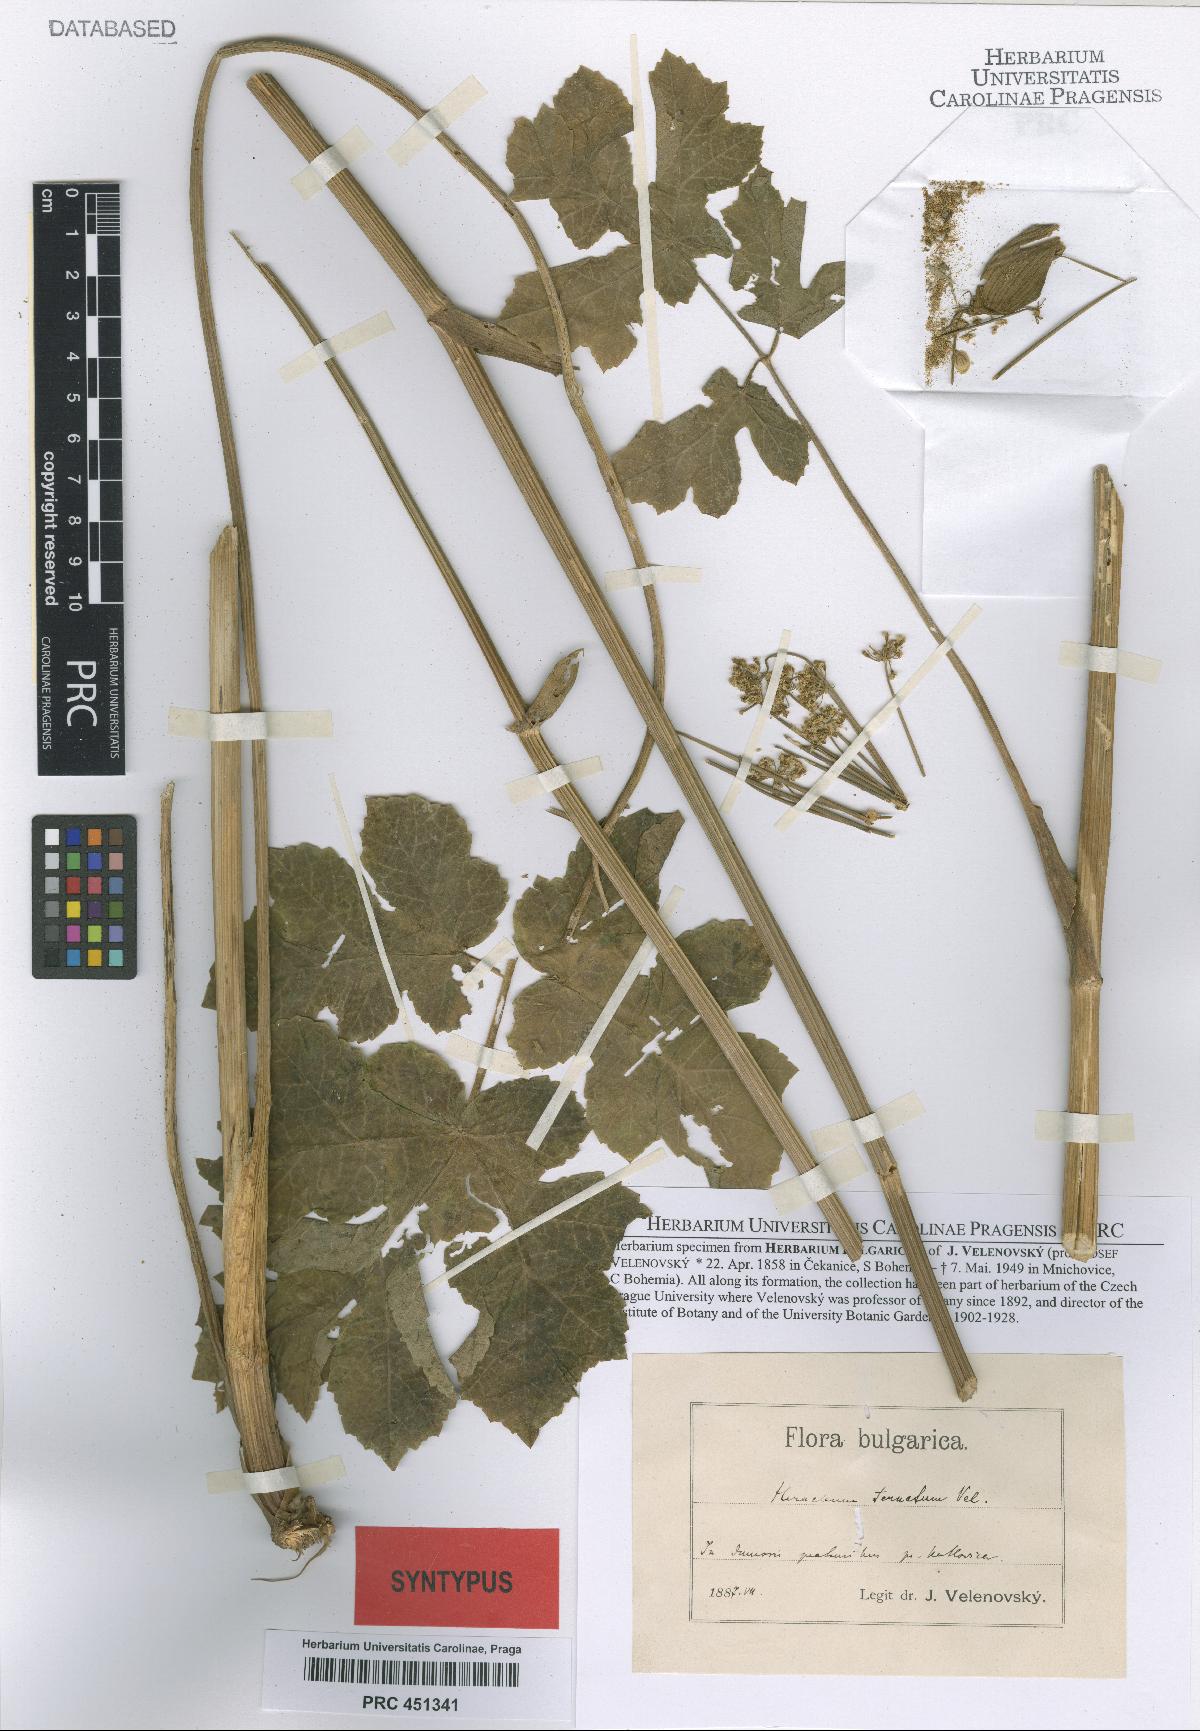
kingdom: Plantae
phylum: Tracheophyta
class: Magnoliopsida
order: Apiales
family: Apiaceae
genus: Heracleum
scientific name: Heracleum sphondylium
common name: Hogweed
